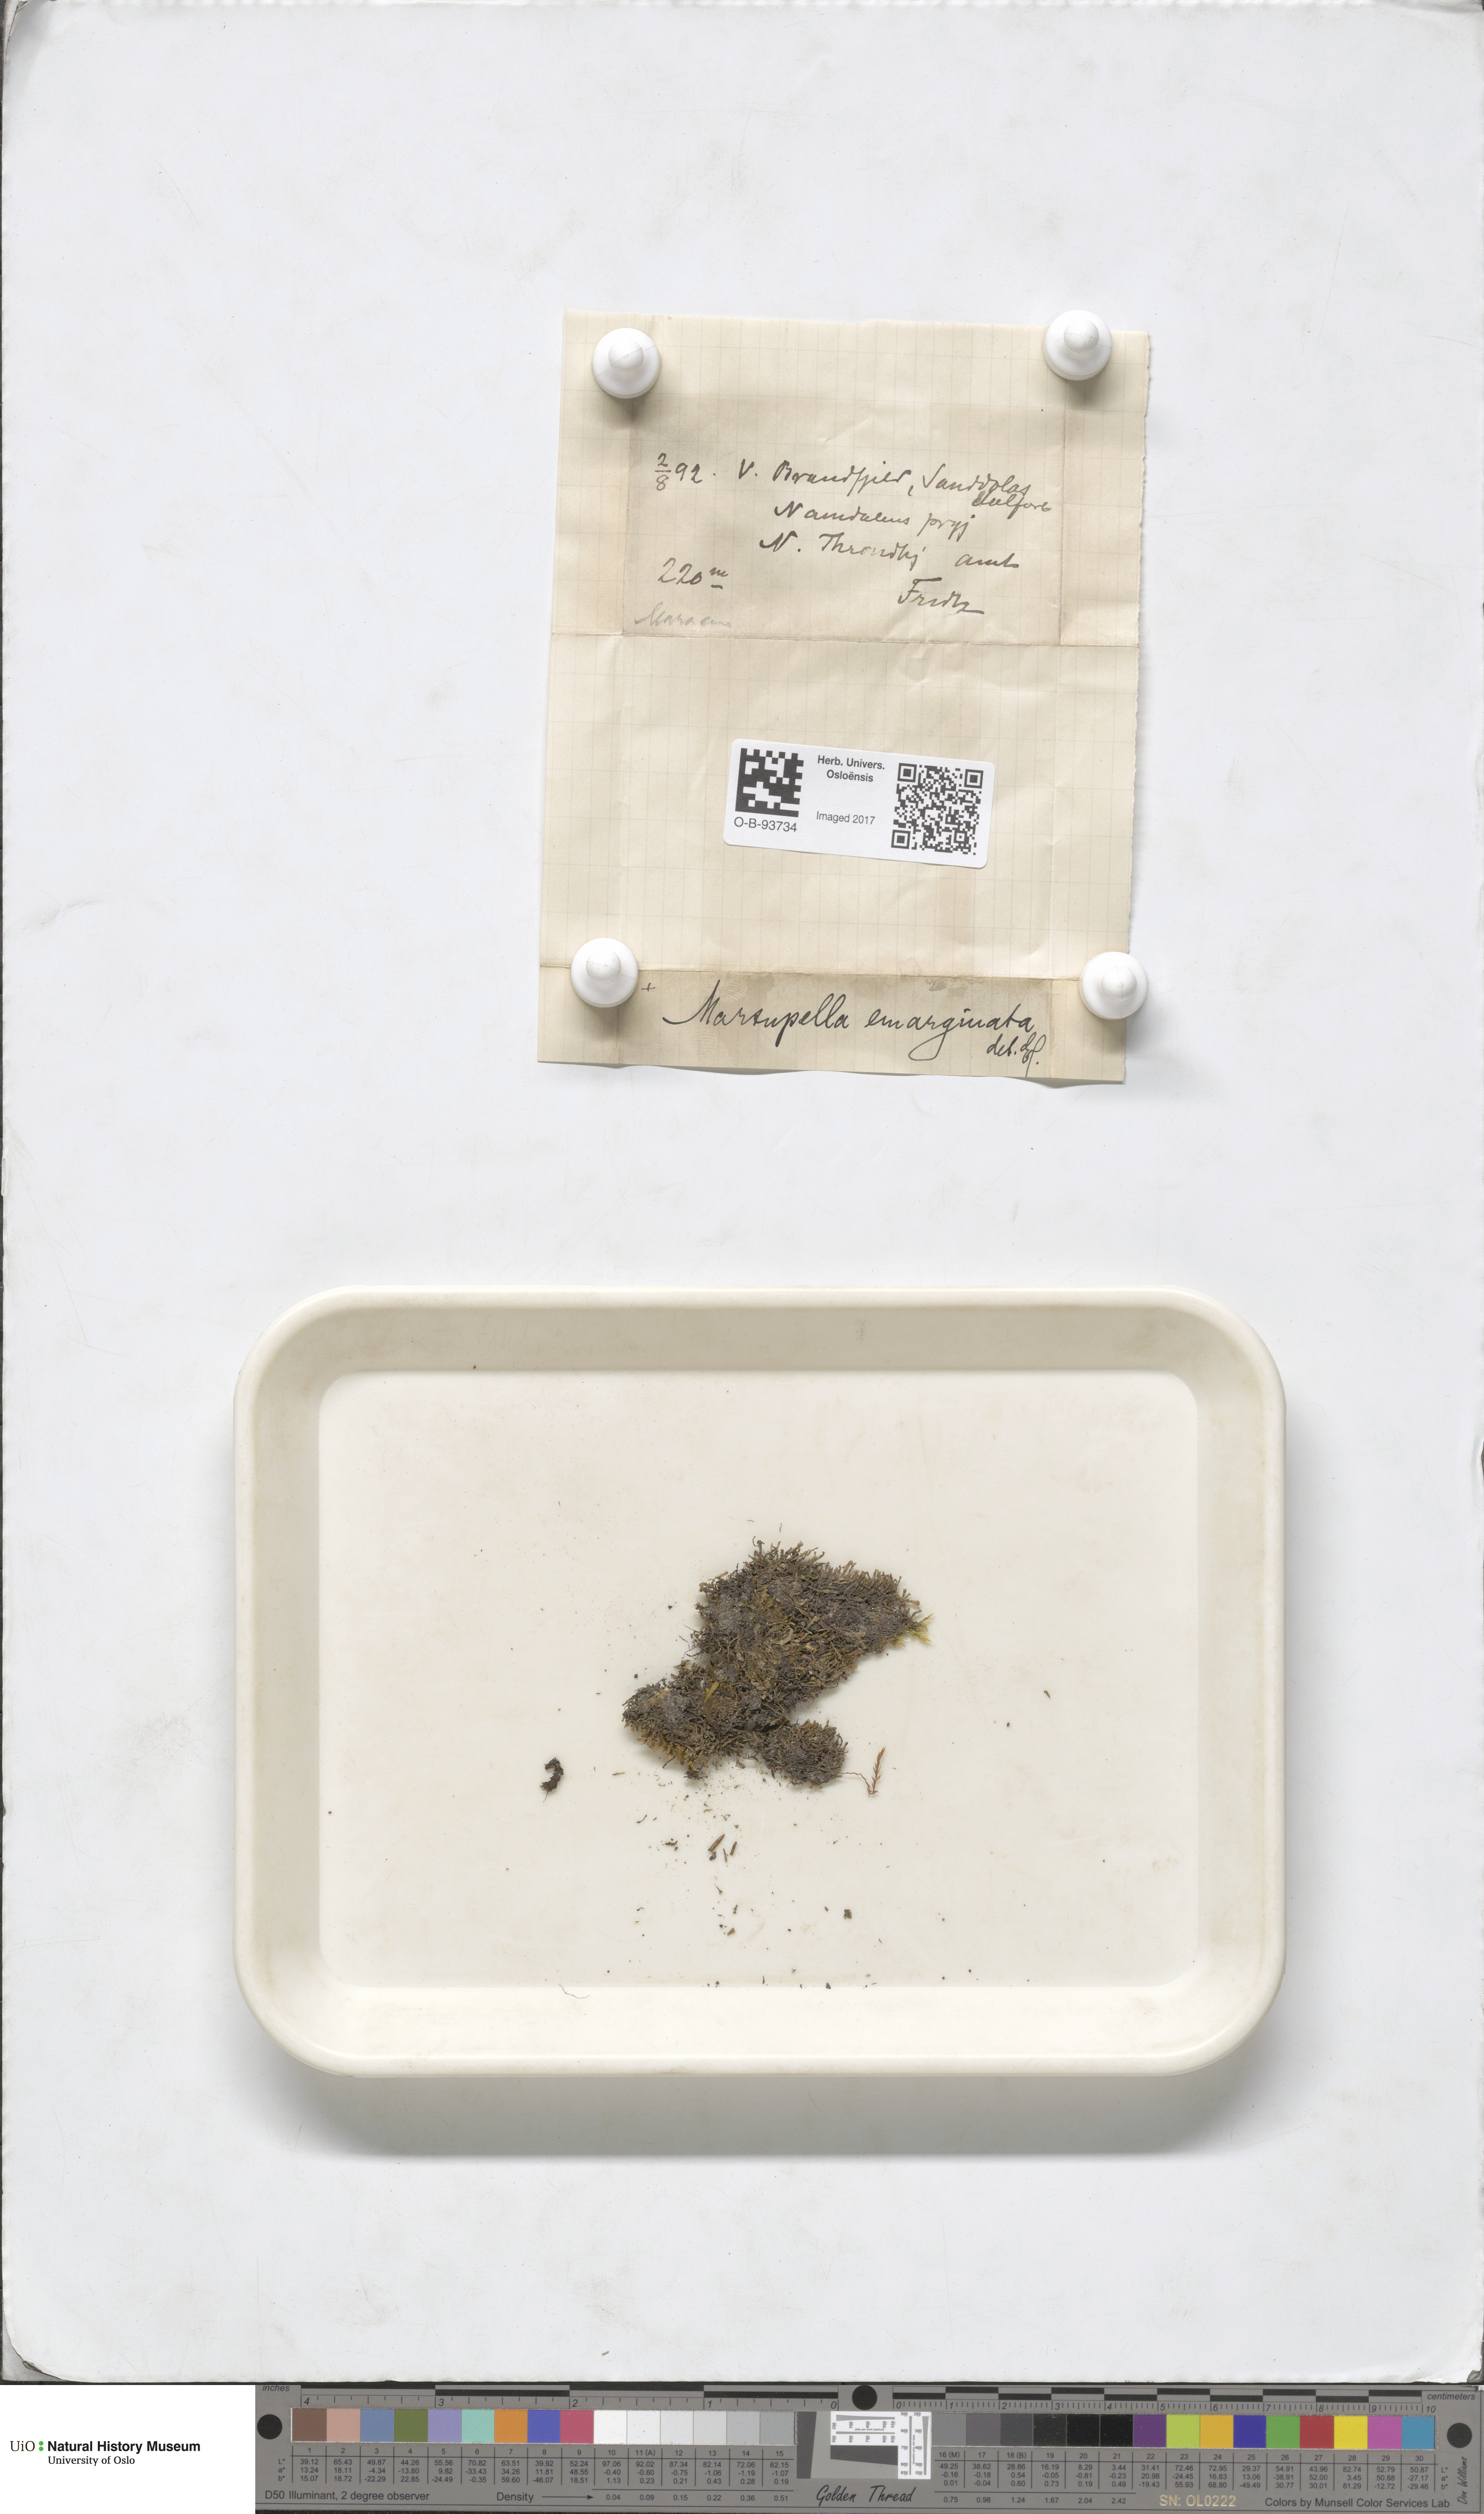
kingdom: Plantae
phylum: Marchantiophyta
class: Jungermanniopsida
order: Jungermanniales
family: Gymnomitriaceae
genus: Marsupella
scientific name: Marsupella emarginata
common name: Notched rustwort
